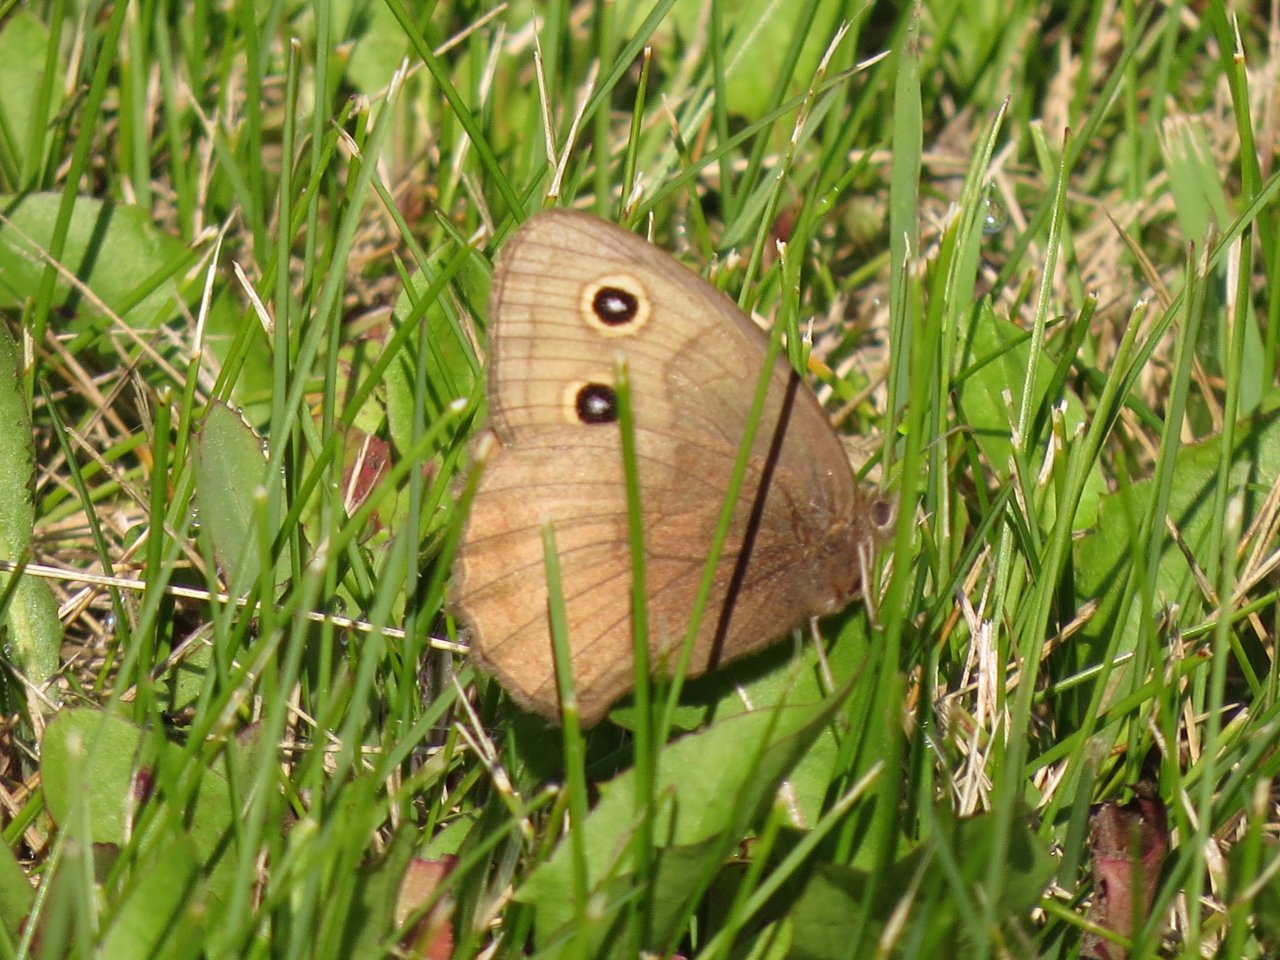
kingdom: Animalia
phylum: Arthropoda
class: Insecta
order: Lepidoptera
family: Nymphalidae
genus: Cercyonis
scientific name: Cercyonis pegala
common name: Common Wood-Nymph
